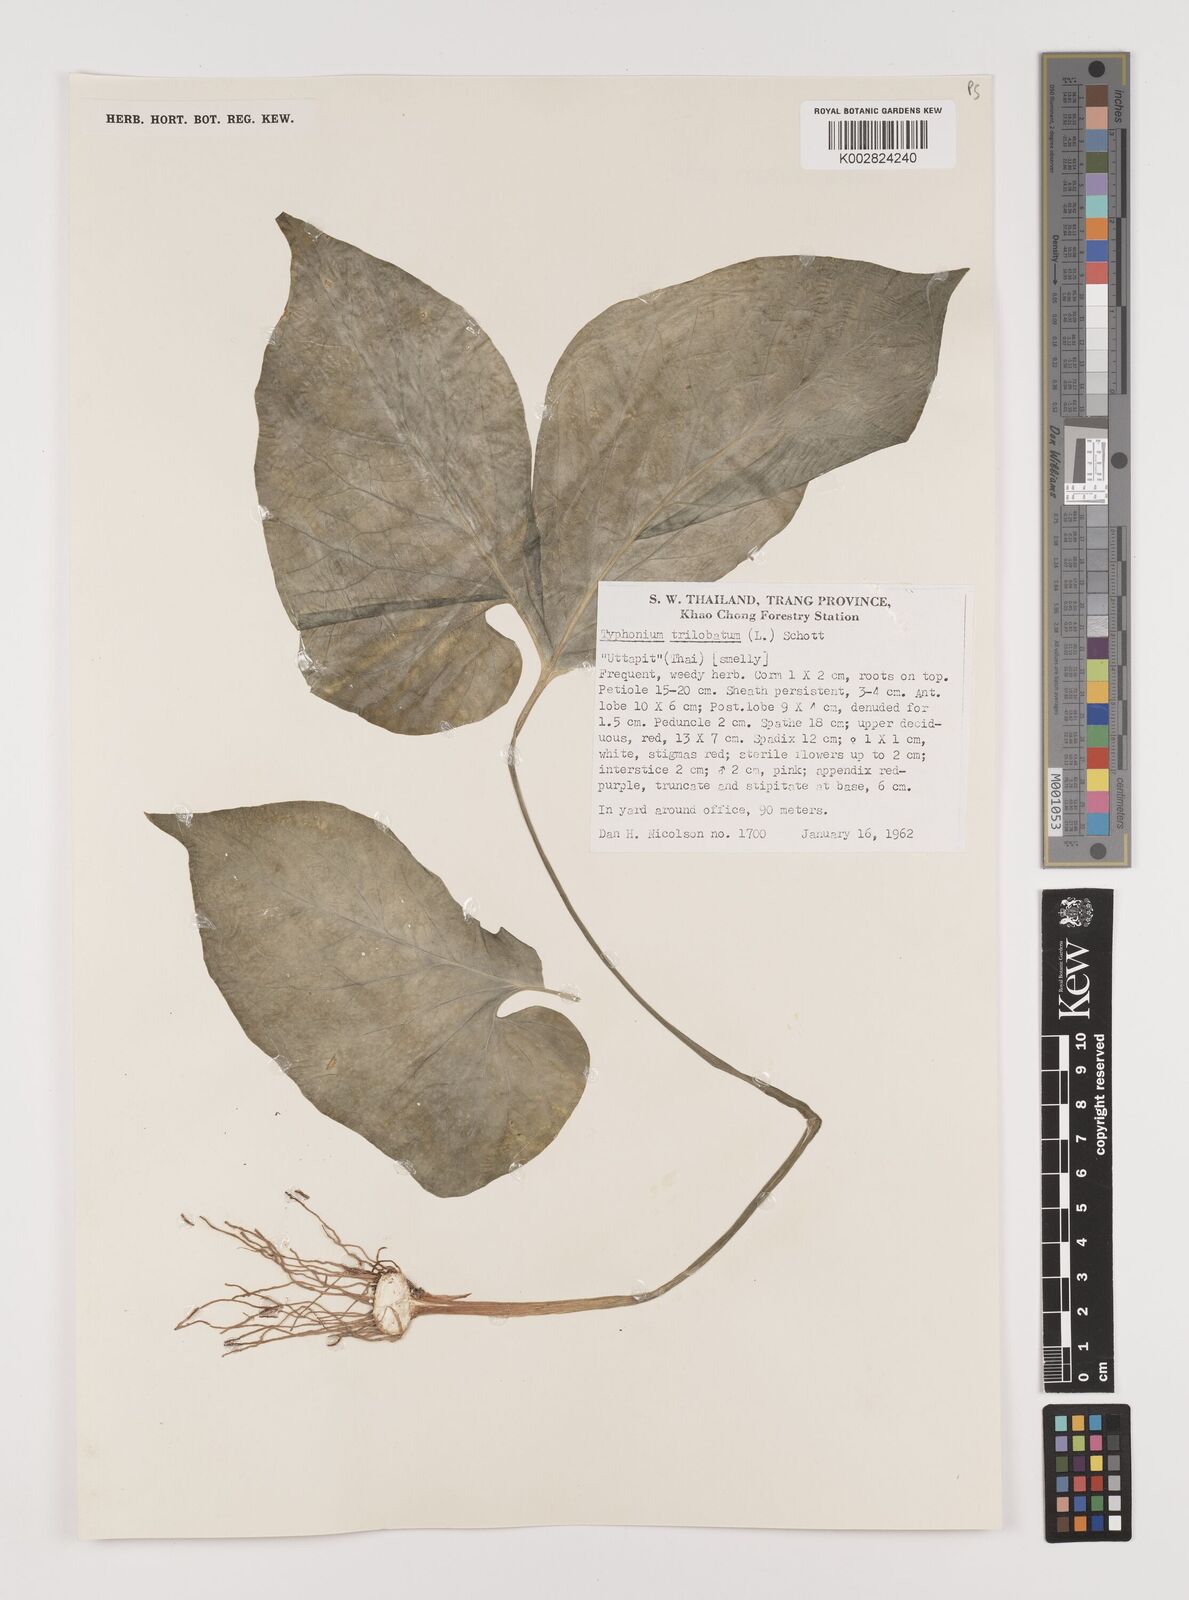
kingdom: Plantae
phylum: Tracheophyta
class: Liliopsida
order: Alismatales
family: Araceae
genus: Typhonium
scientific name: Typhonium trilobatum
